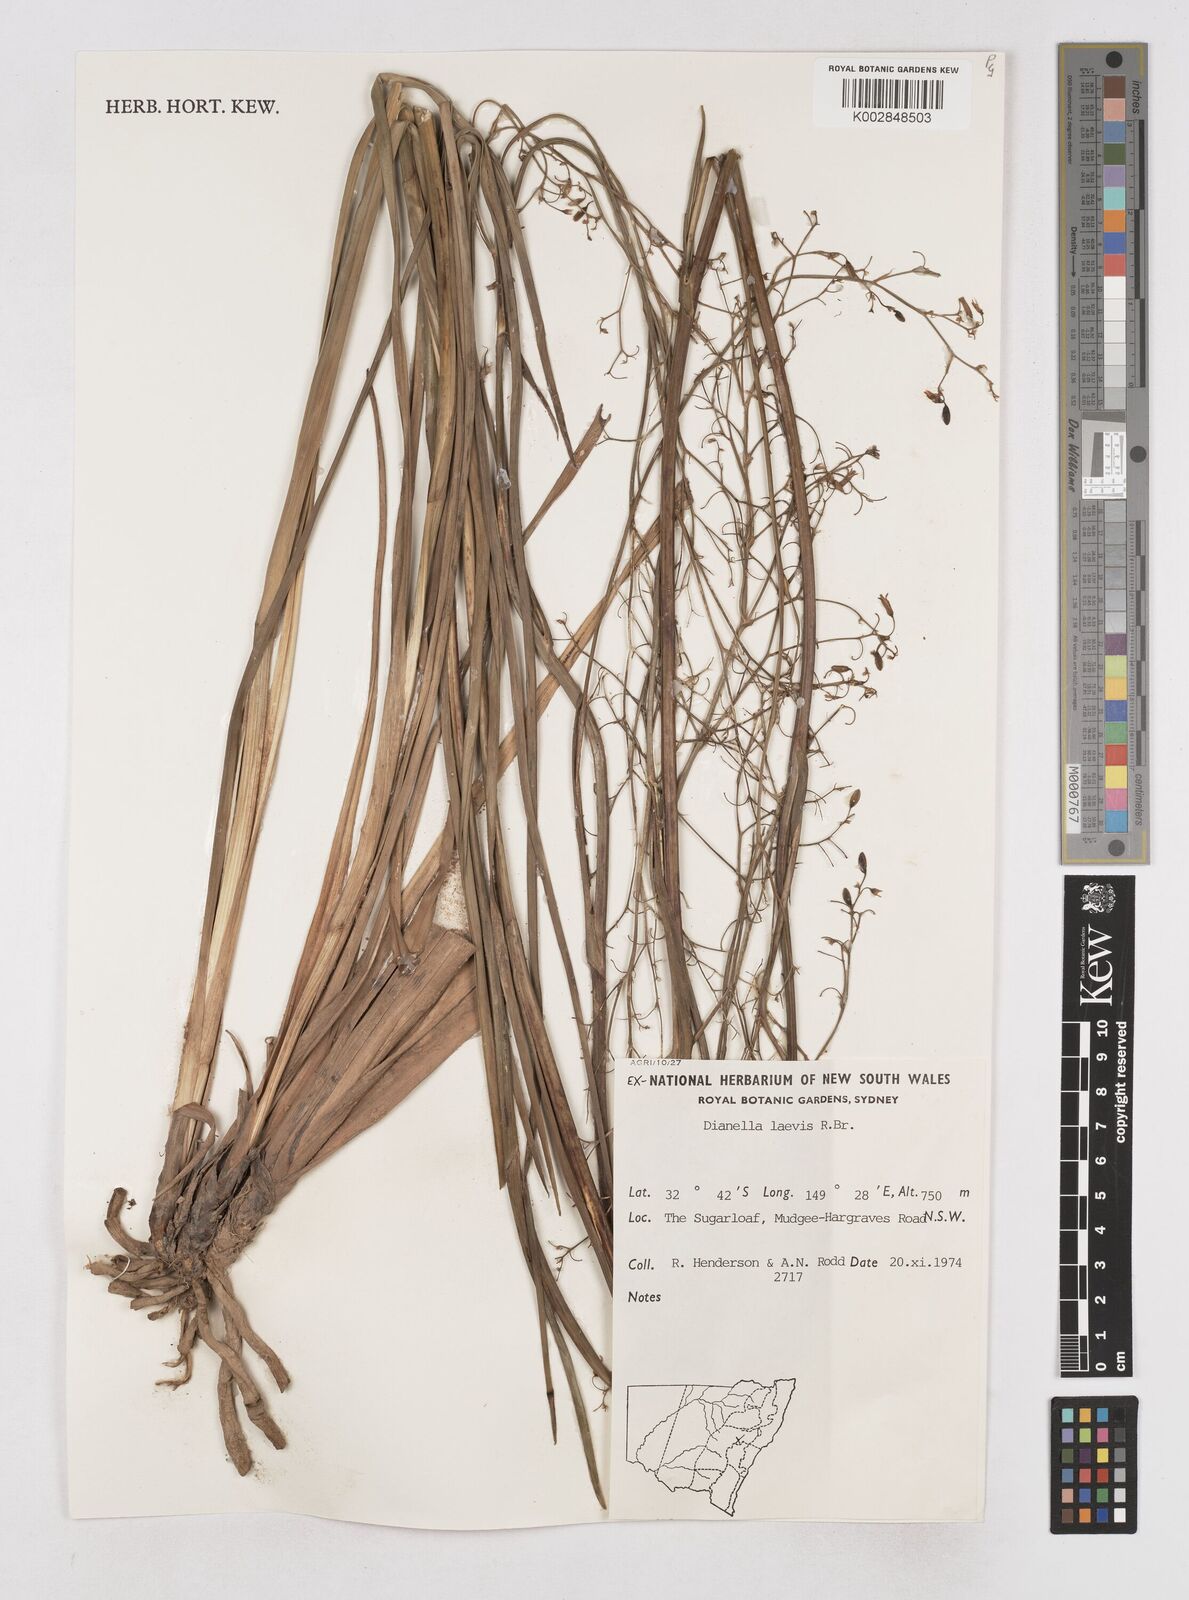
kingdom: Plantae
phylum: Tracheophyta
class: Liliopsida
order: Asparagales
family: Asphodelaceae
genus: Dianella
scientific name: Dianella longifolia
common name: Blue flax-lily
